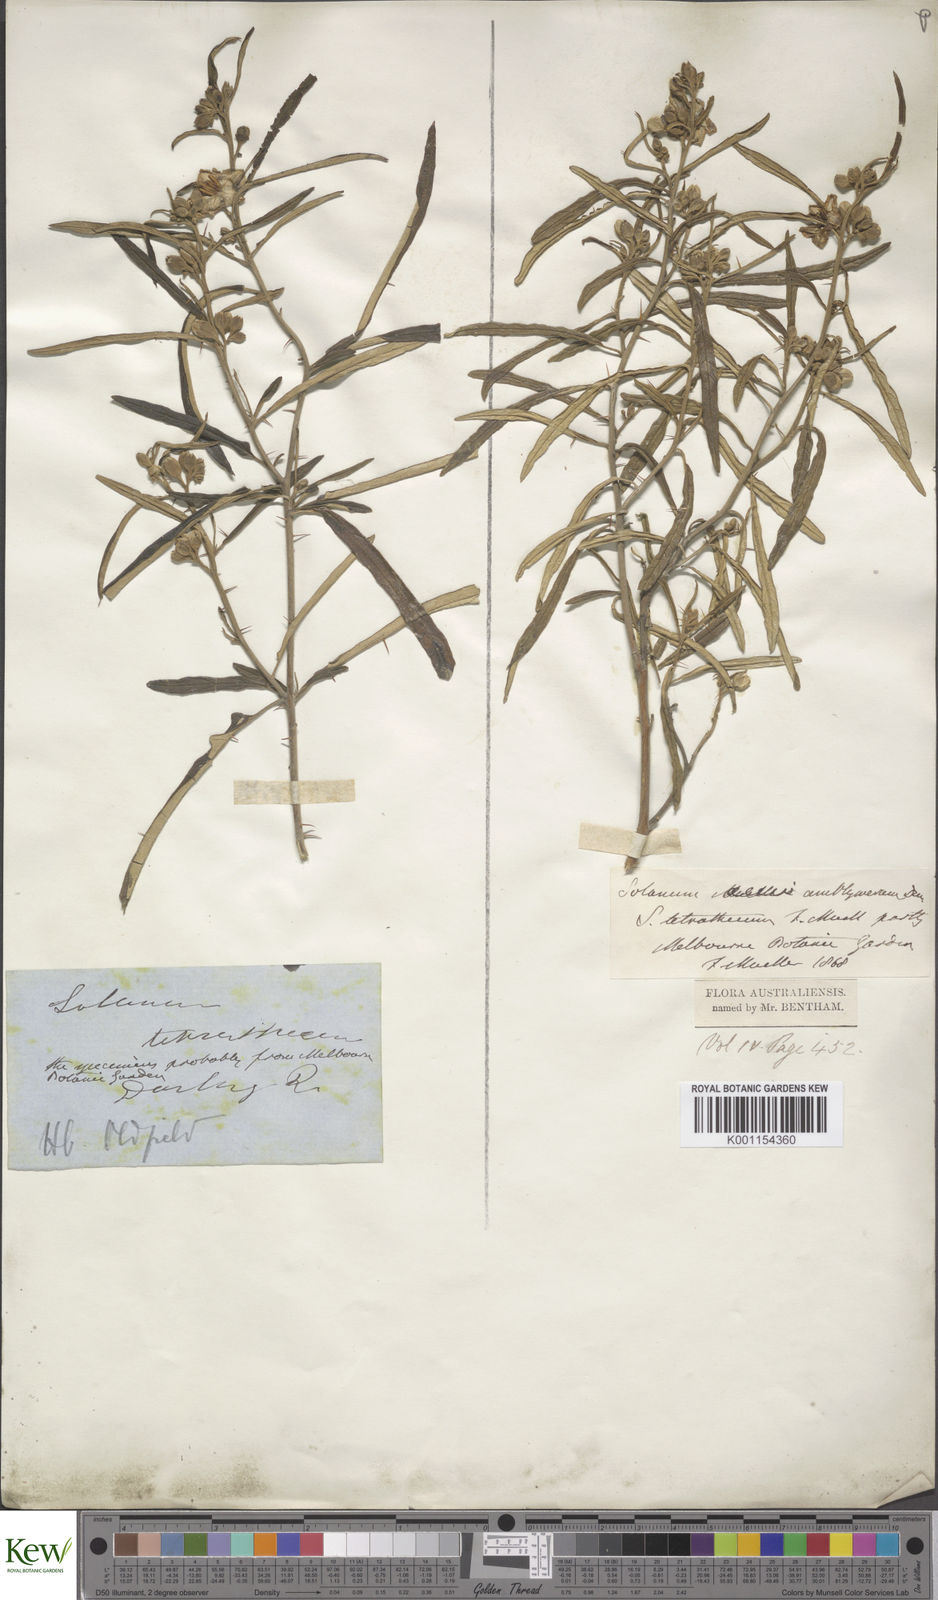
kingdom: Plantae
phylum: Tracheophyta
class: Magnoliopsida
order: Solanales
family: Solanaceae
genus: Solanum
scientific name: Solanum elegans
